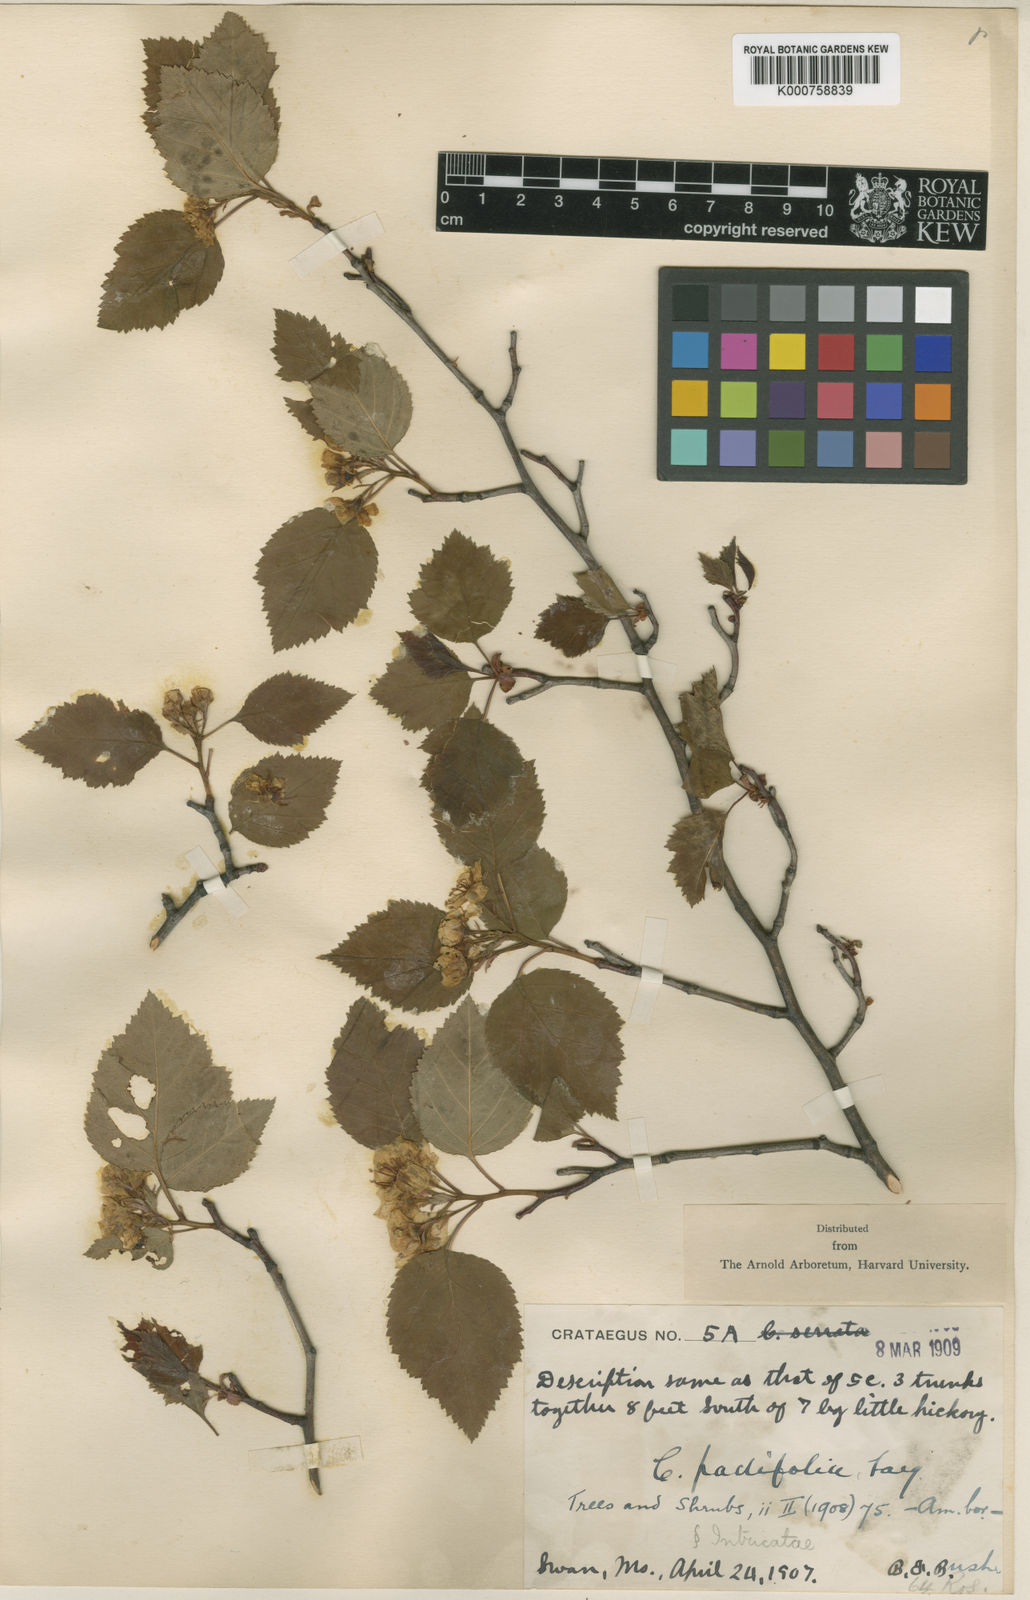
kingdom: Plantae
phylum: Tracheophyta
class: Magnoliopsida
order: Rosales
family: Rosaceae
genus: Crataegus
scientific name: Crataegus padifolia
